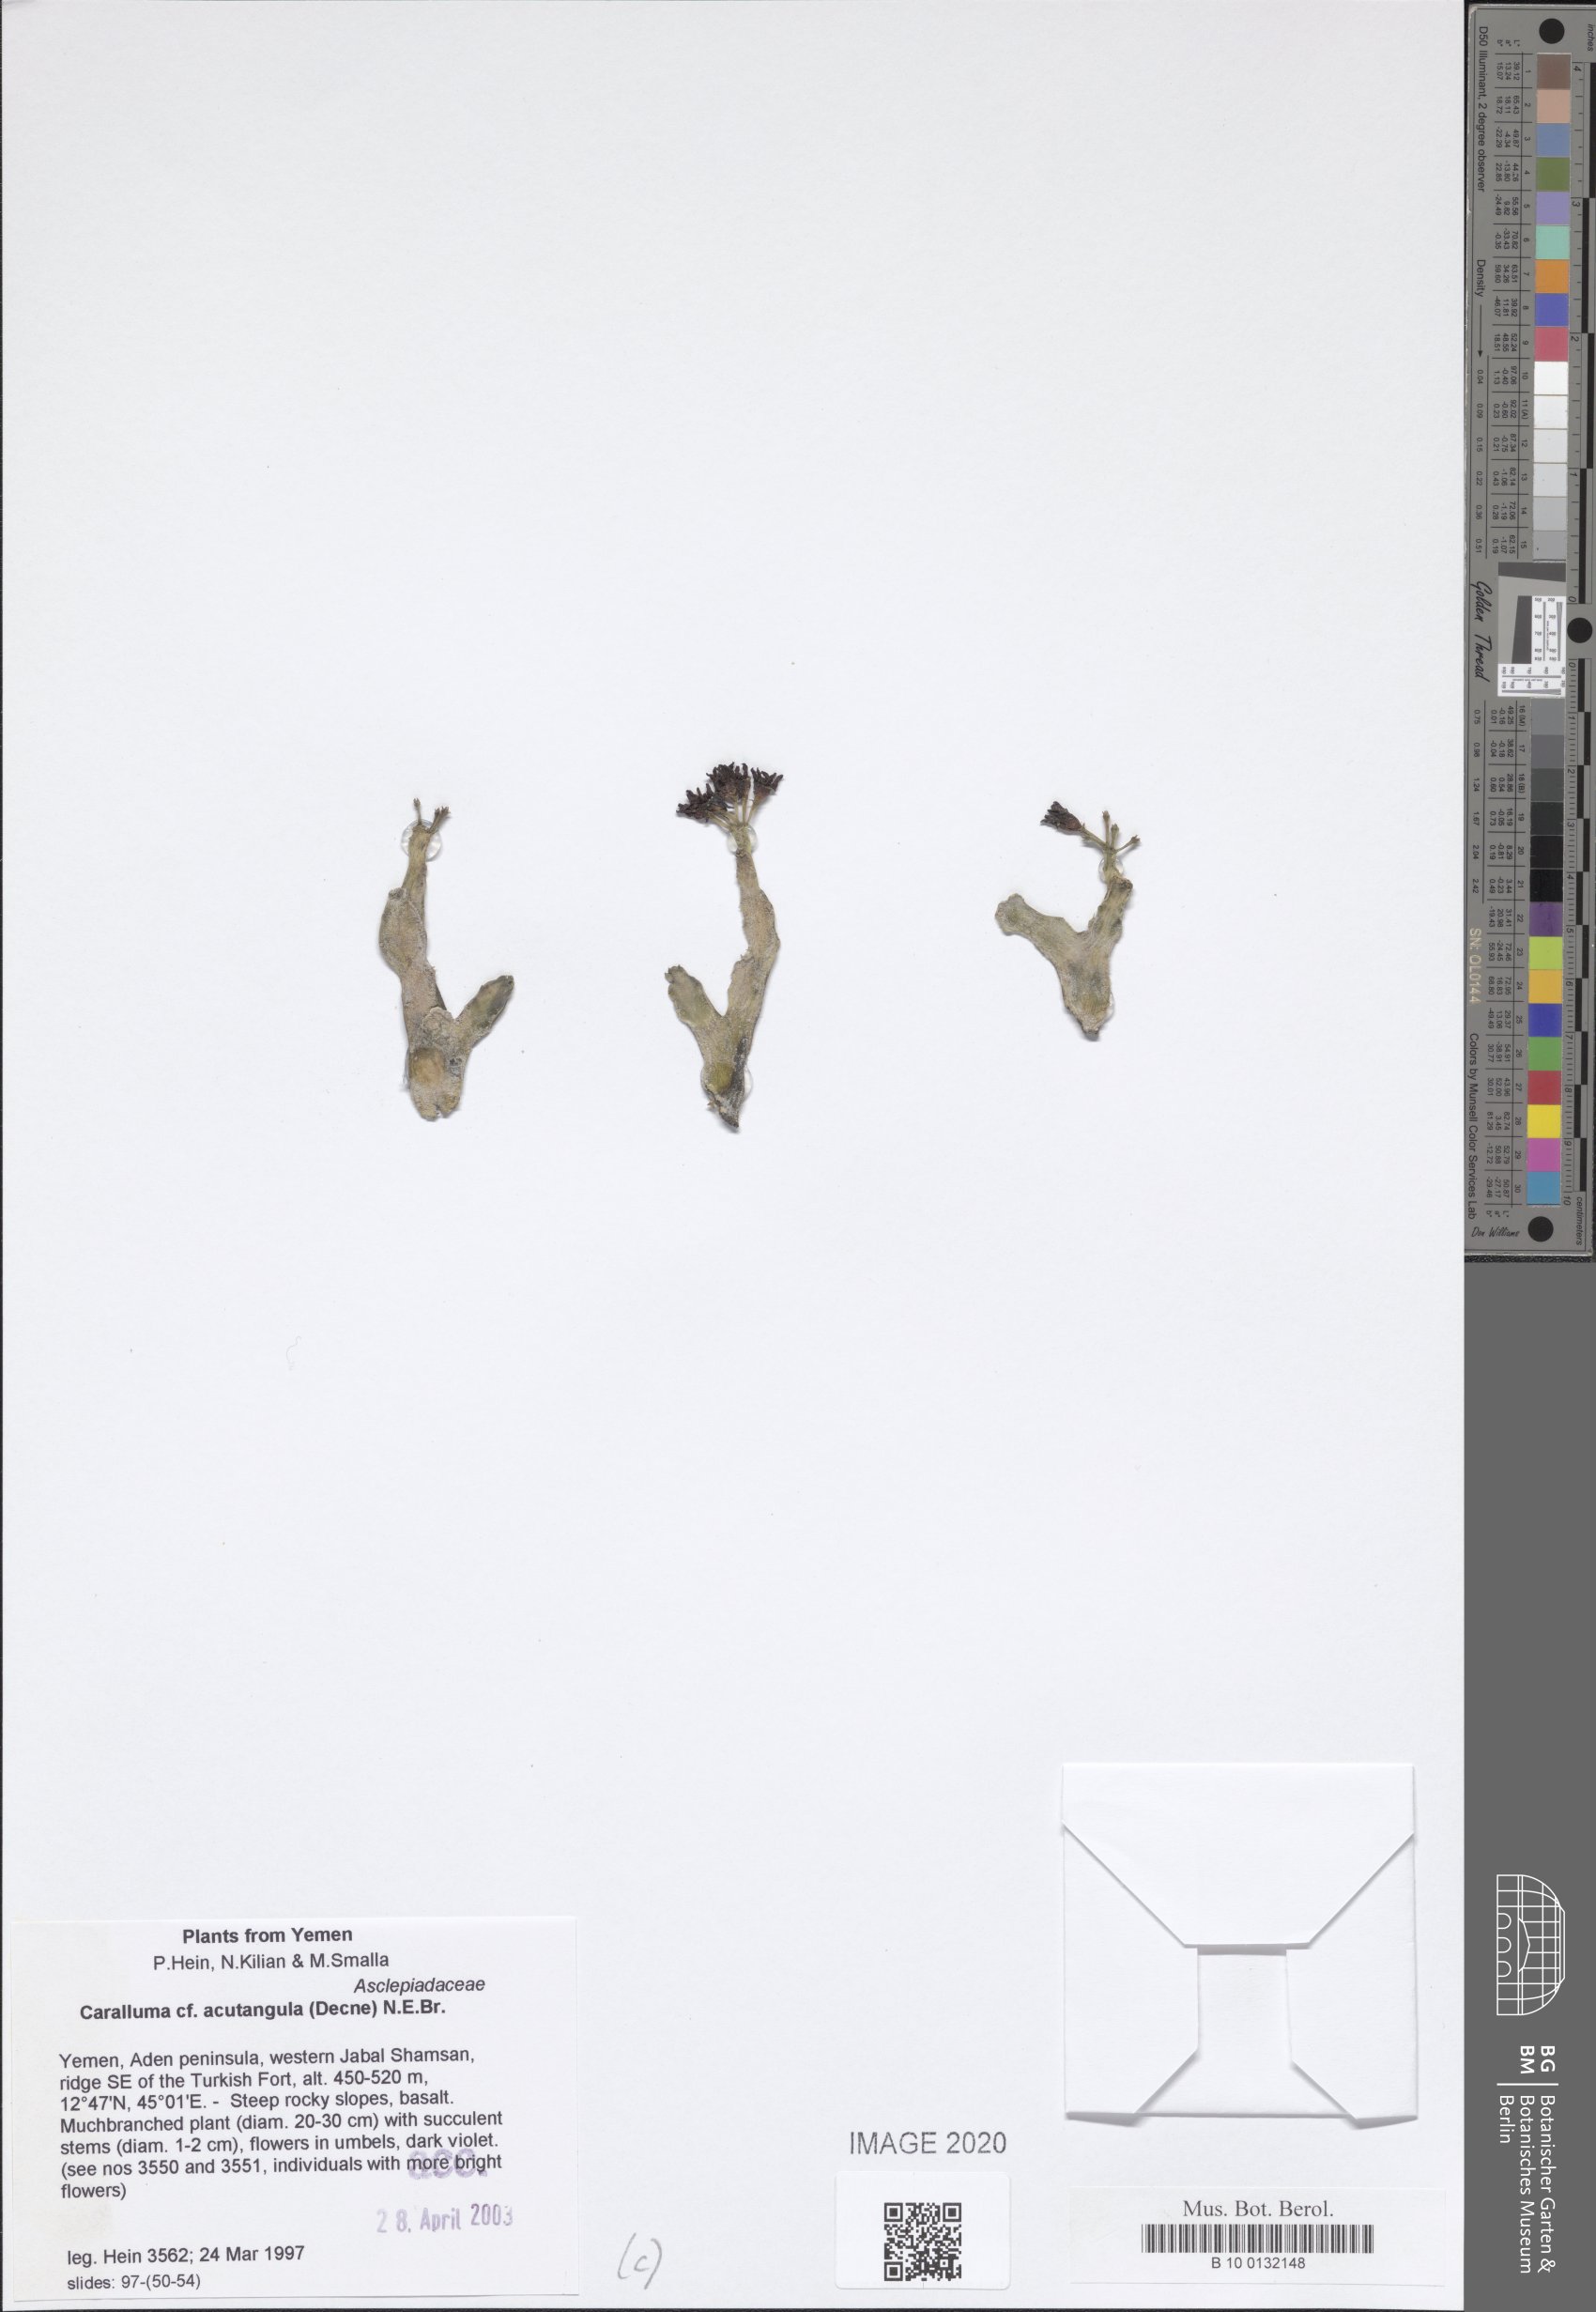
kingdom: Plantae
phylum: Tracheophyta
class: Magnoliopsida
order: Gentianales
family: Apocynaceae
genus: Ceropegia
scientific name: Ceropegia adenensis
